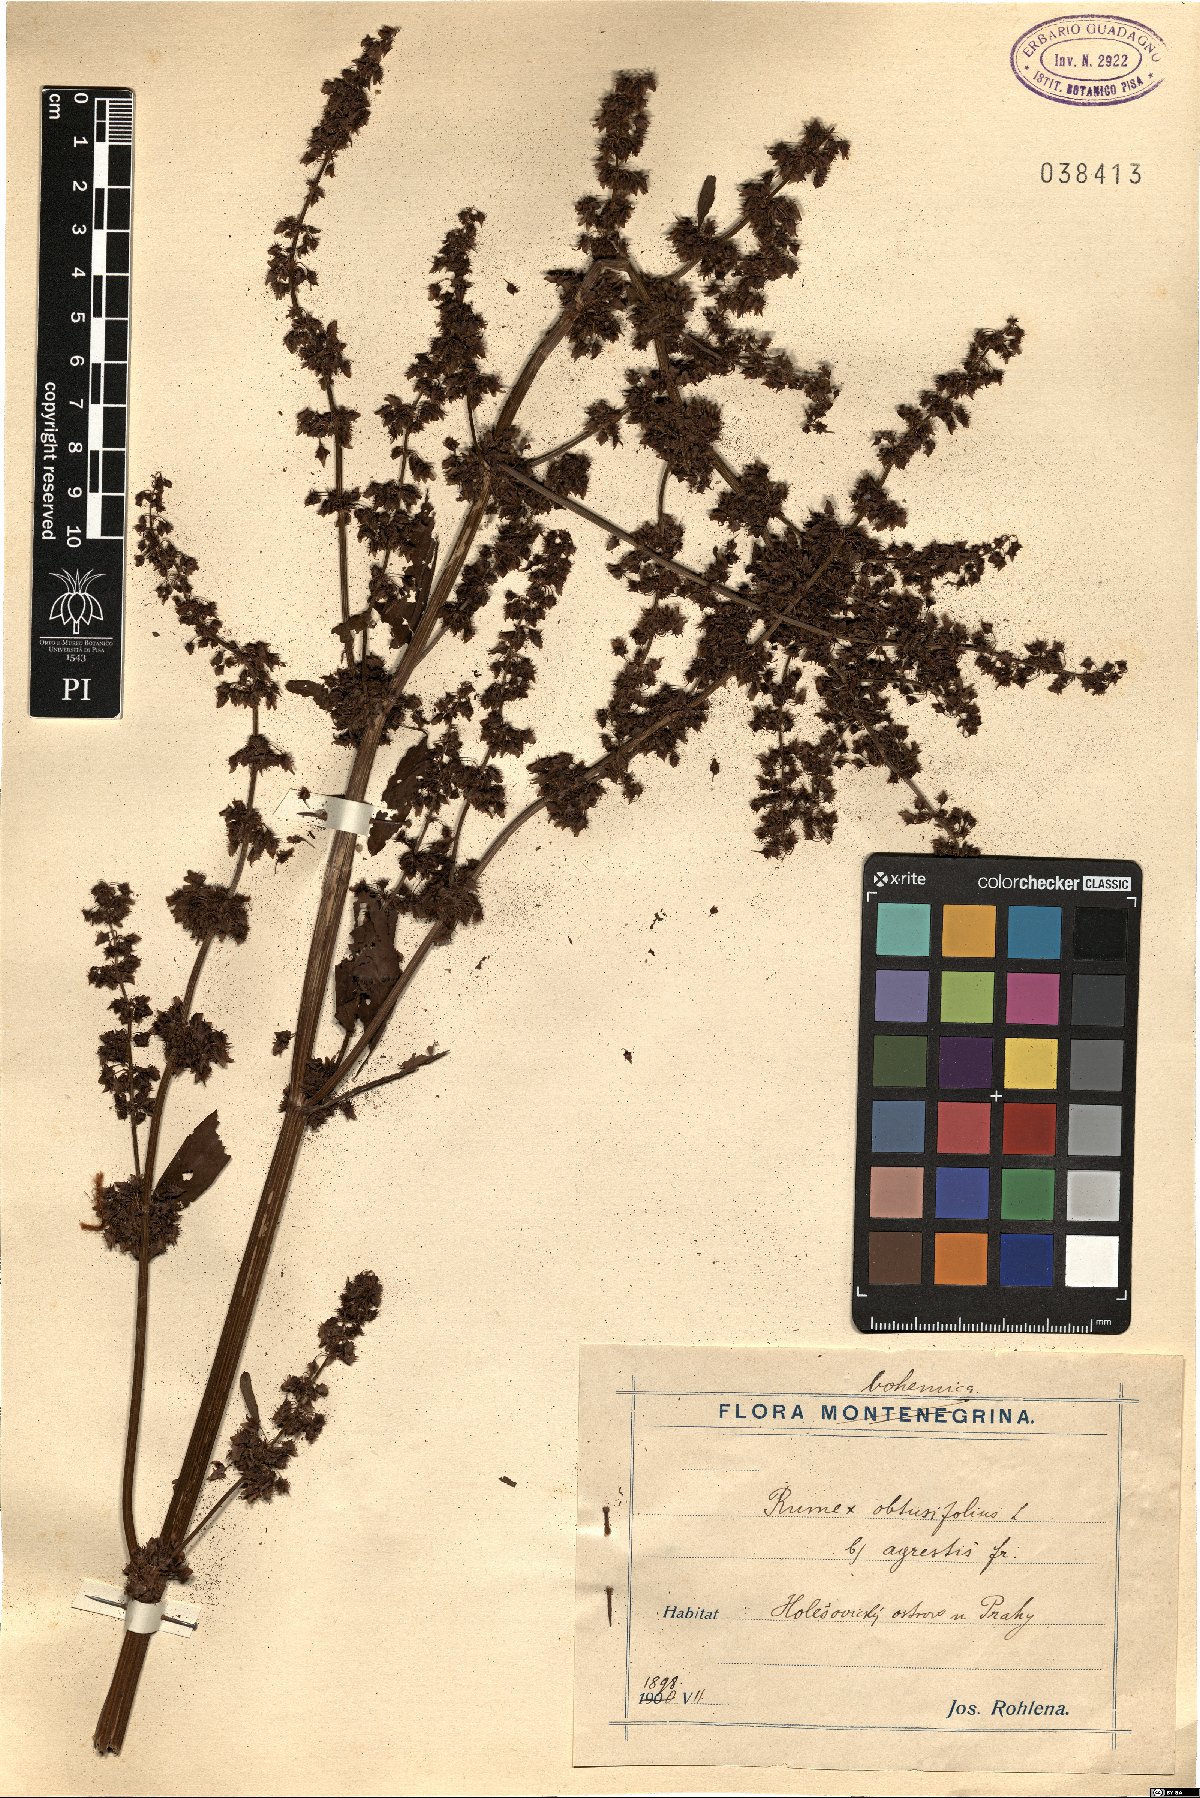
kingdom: Plantae
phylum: Tracheophyta
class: Magnoliopsida
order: Caryophyllales
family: Polygonaceae
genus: Rumex
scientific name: Rumex obtusifolius
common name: Bitter dock
